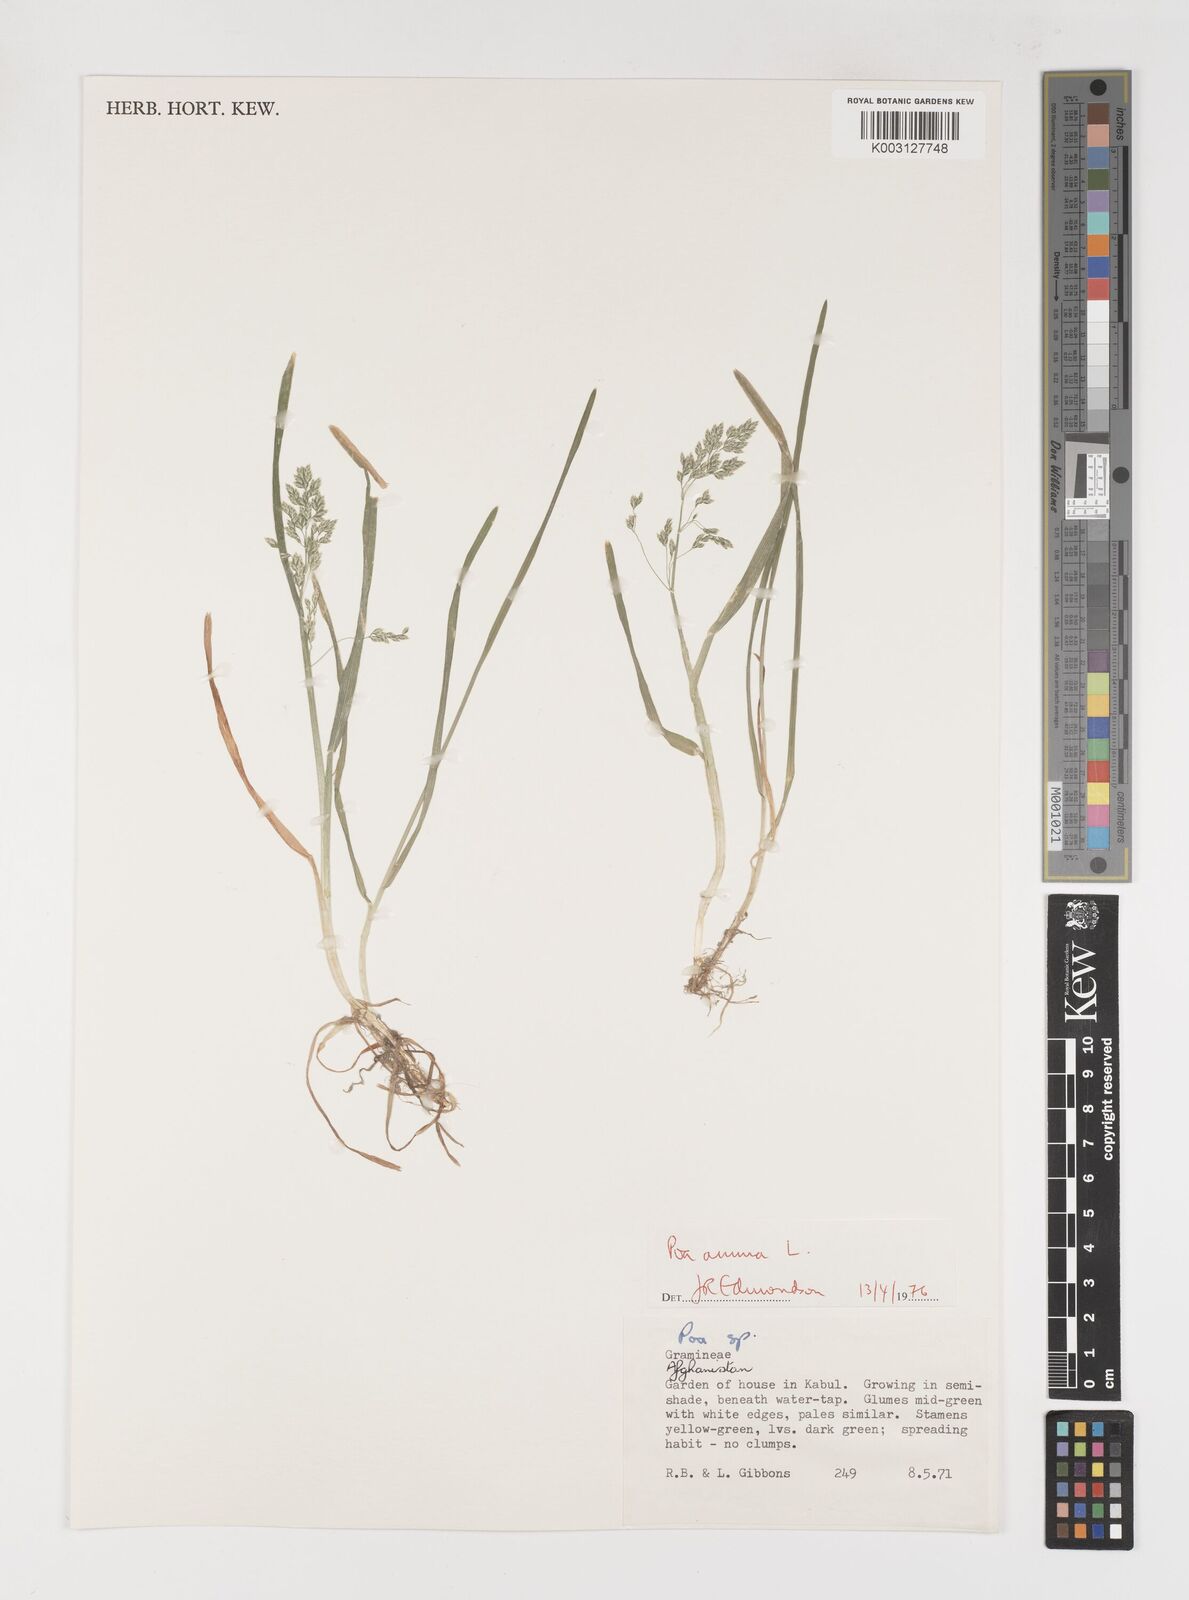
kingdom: Plantae
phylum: Tracheophyta
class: Liliopsida
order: Poales
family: Poaceae
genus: Poa
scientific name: Poa annua
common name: Annual bluegrass
